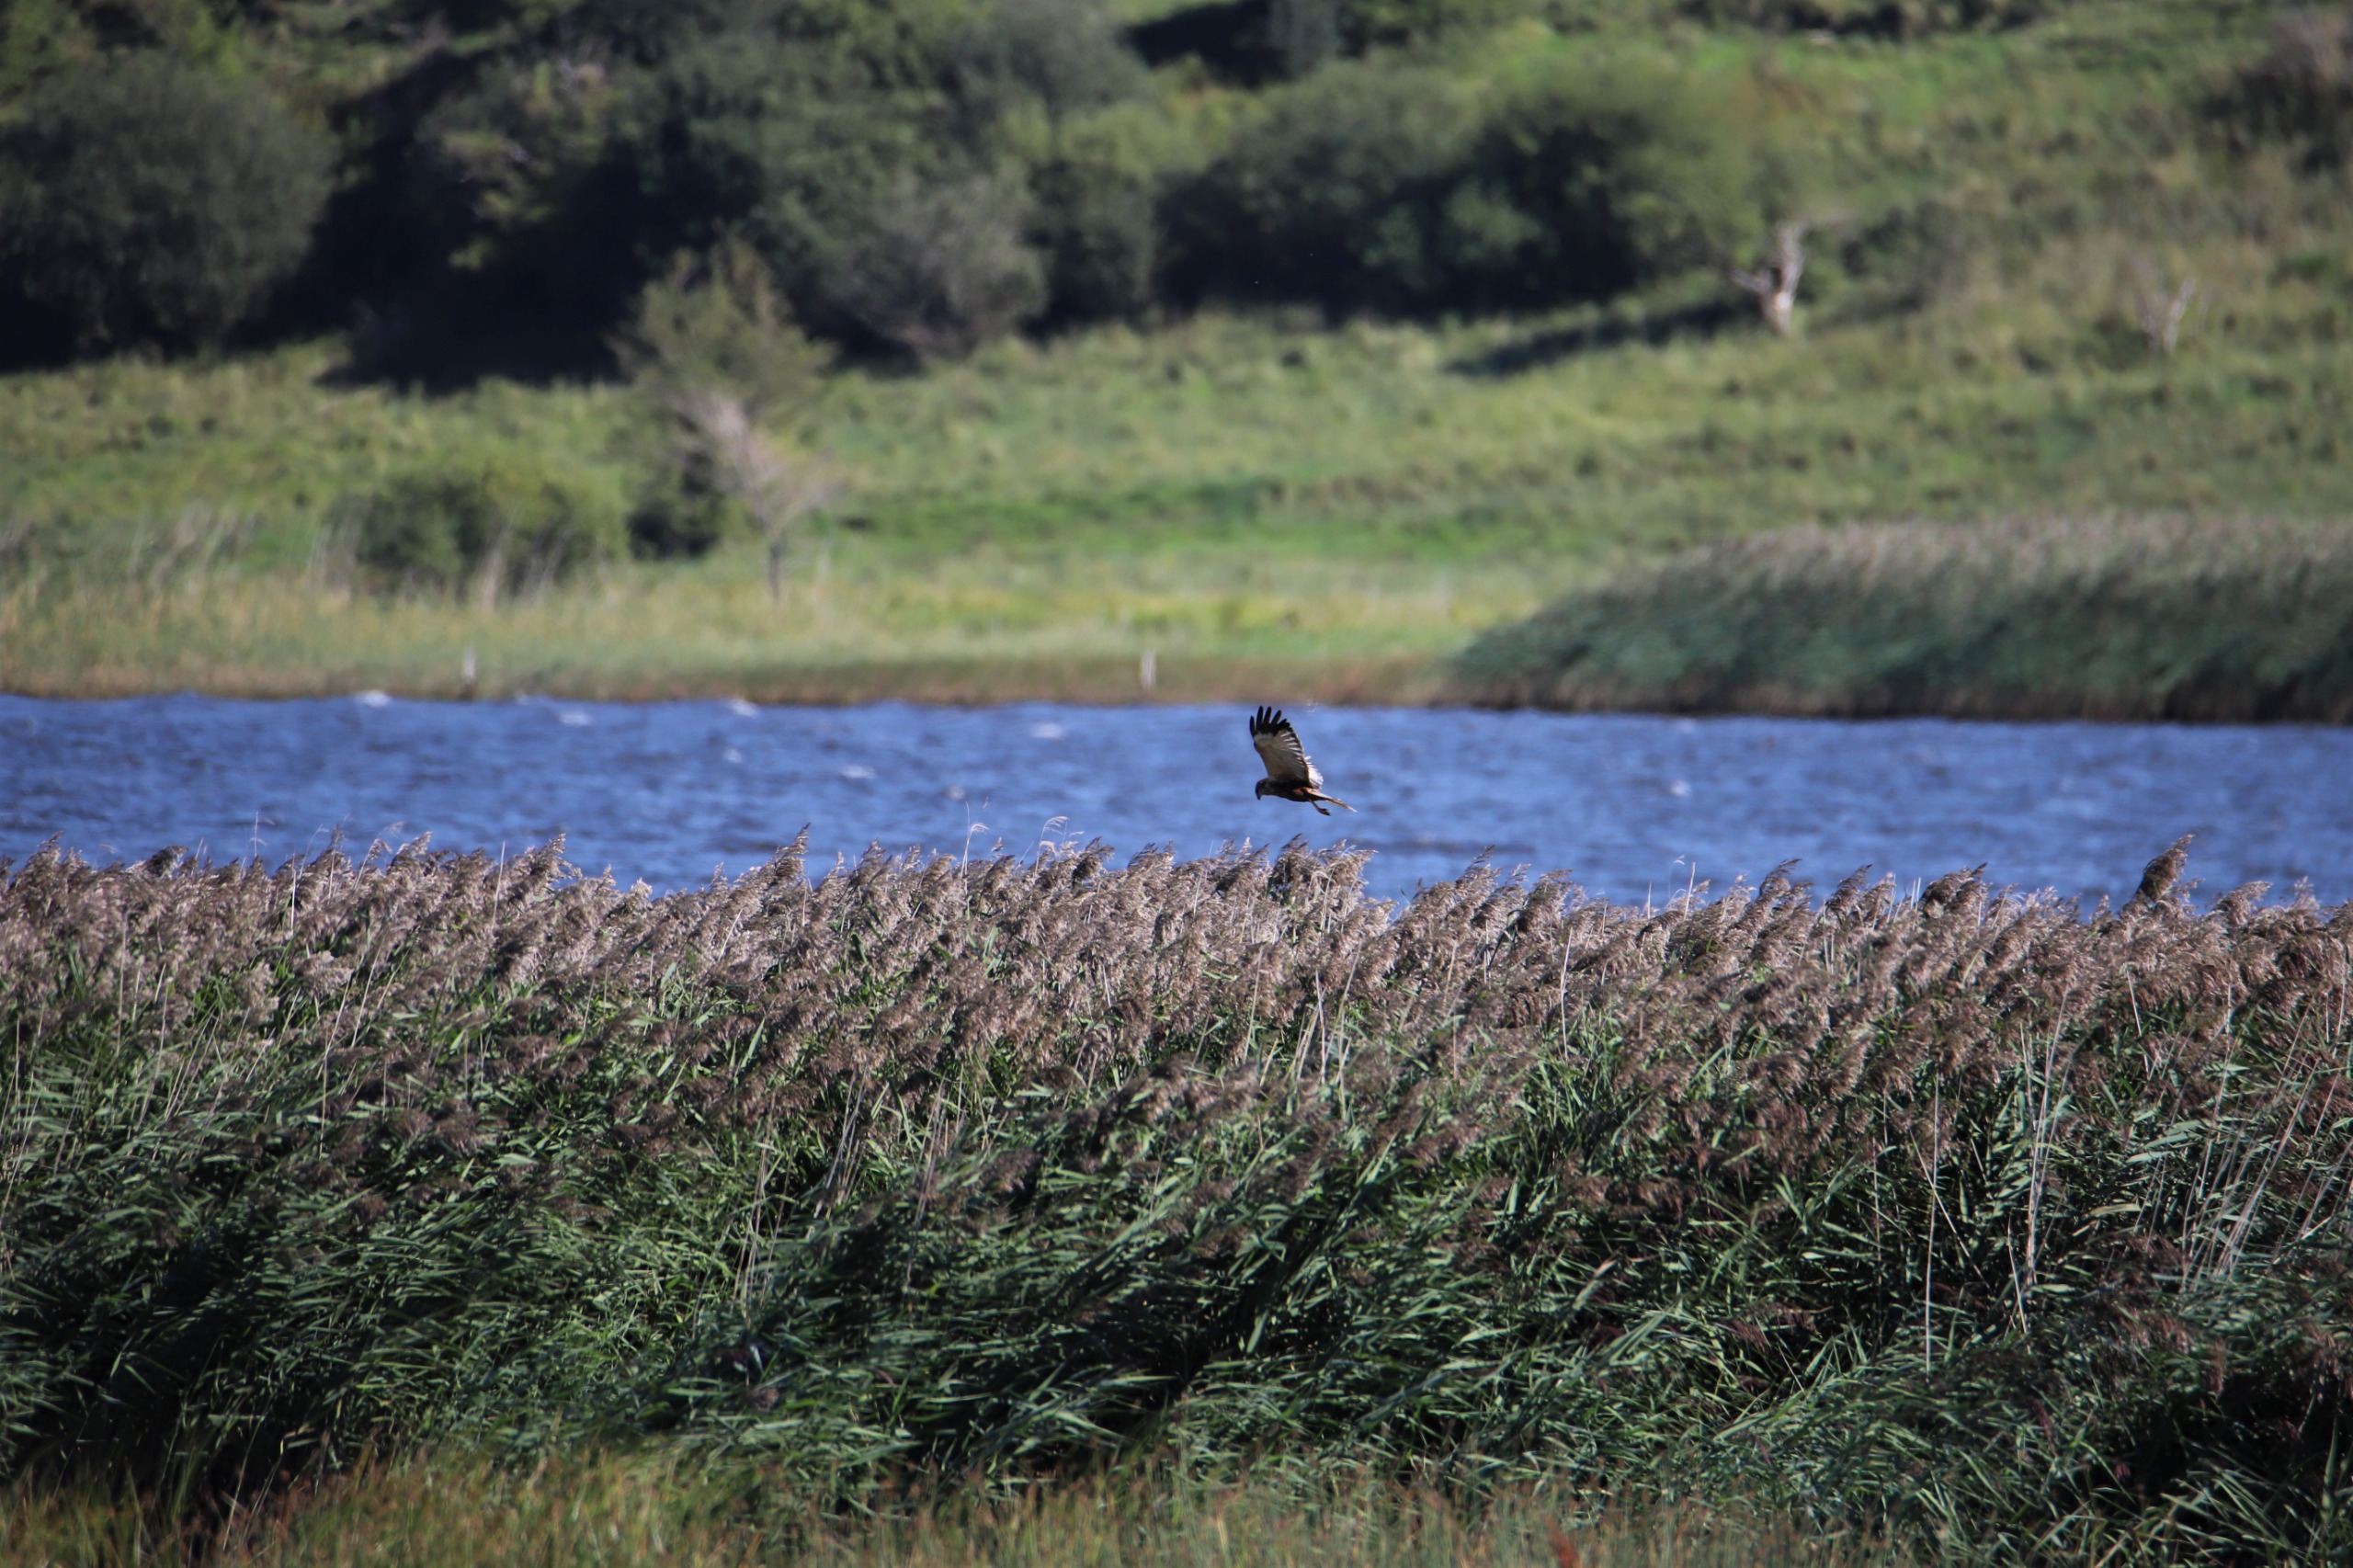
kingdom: Animalia
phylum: Chordata
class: Aves
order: Accipitriformes
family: Accipitridae
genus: Circus
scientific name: Circus aeruginosus
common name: Rørhøg
